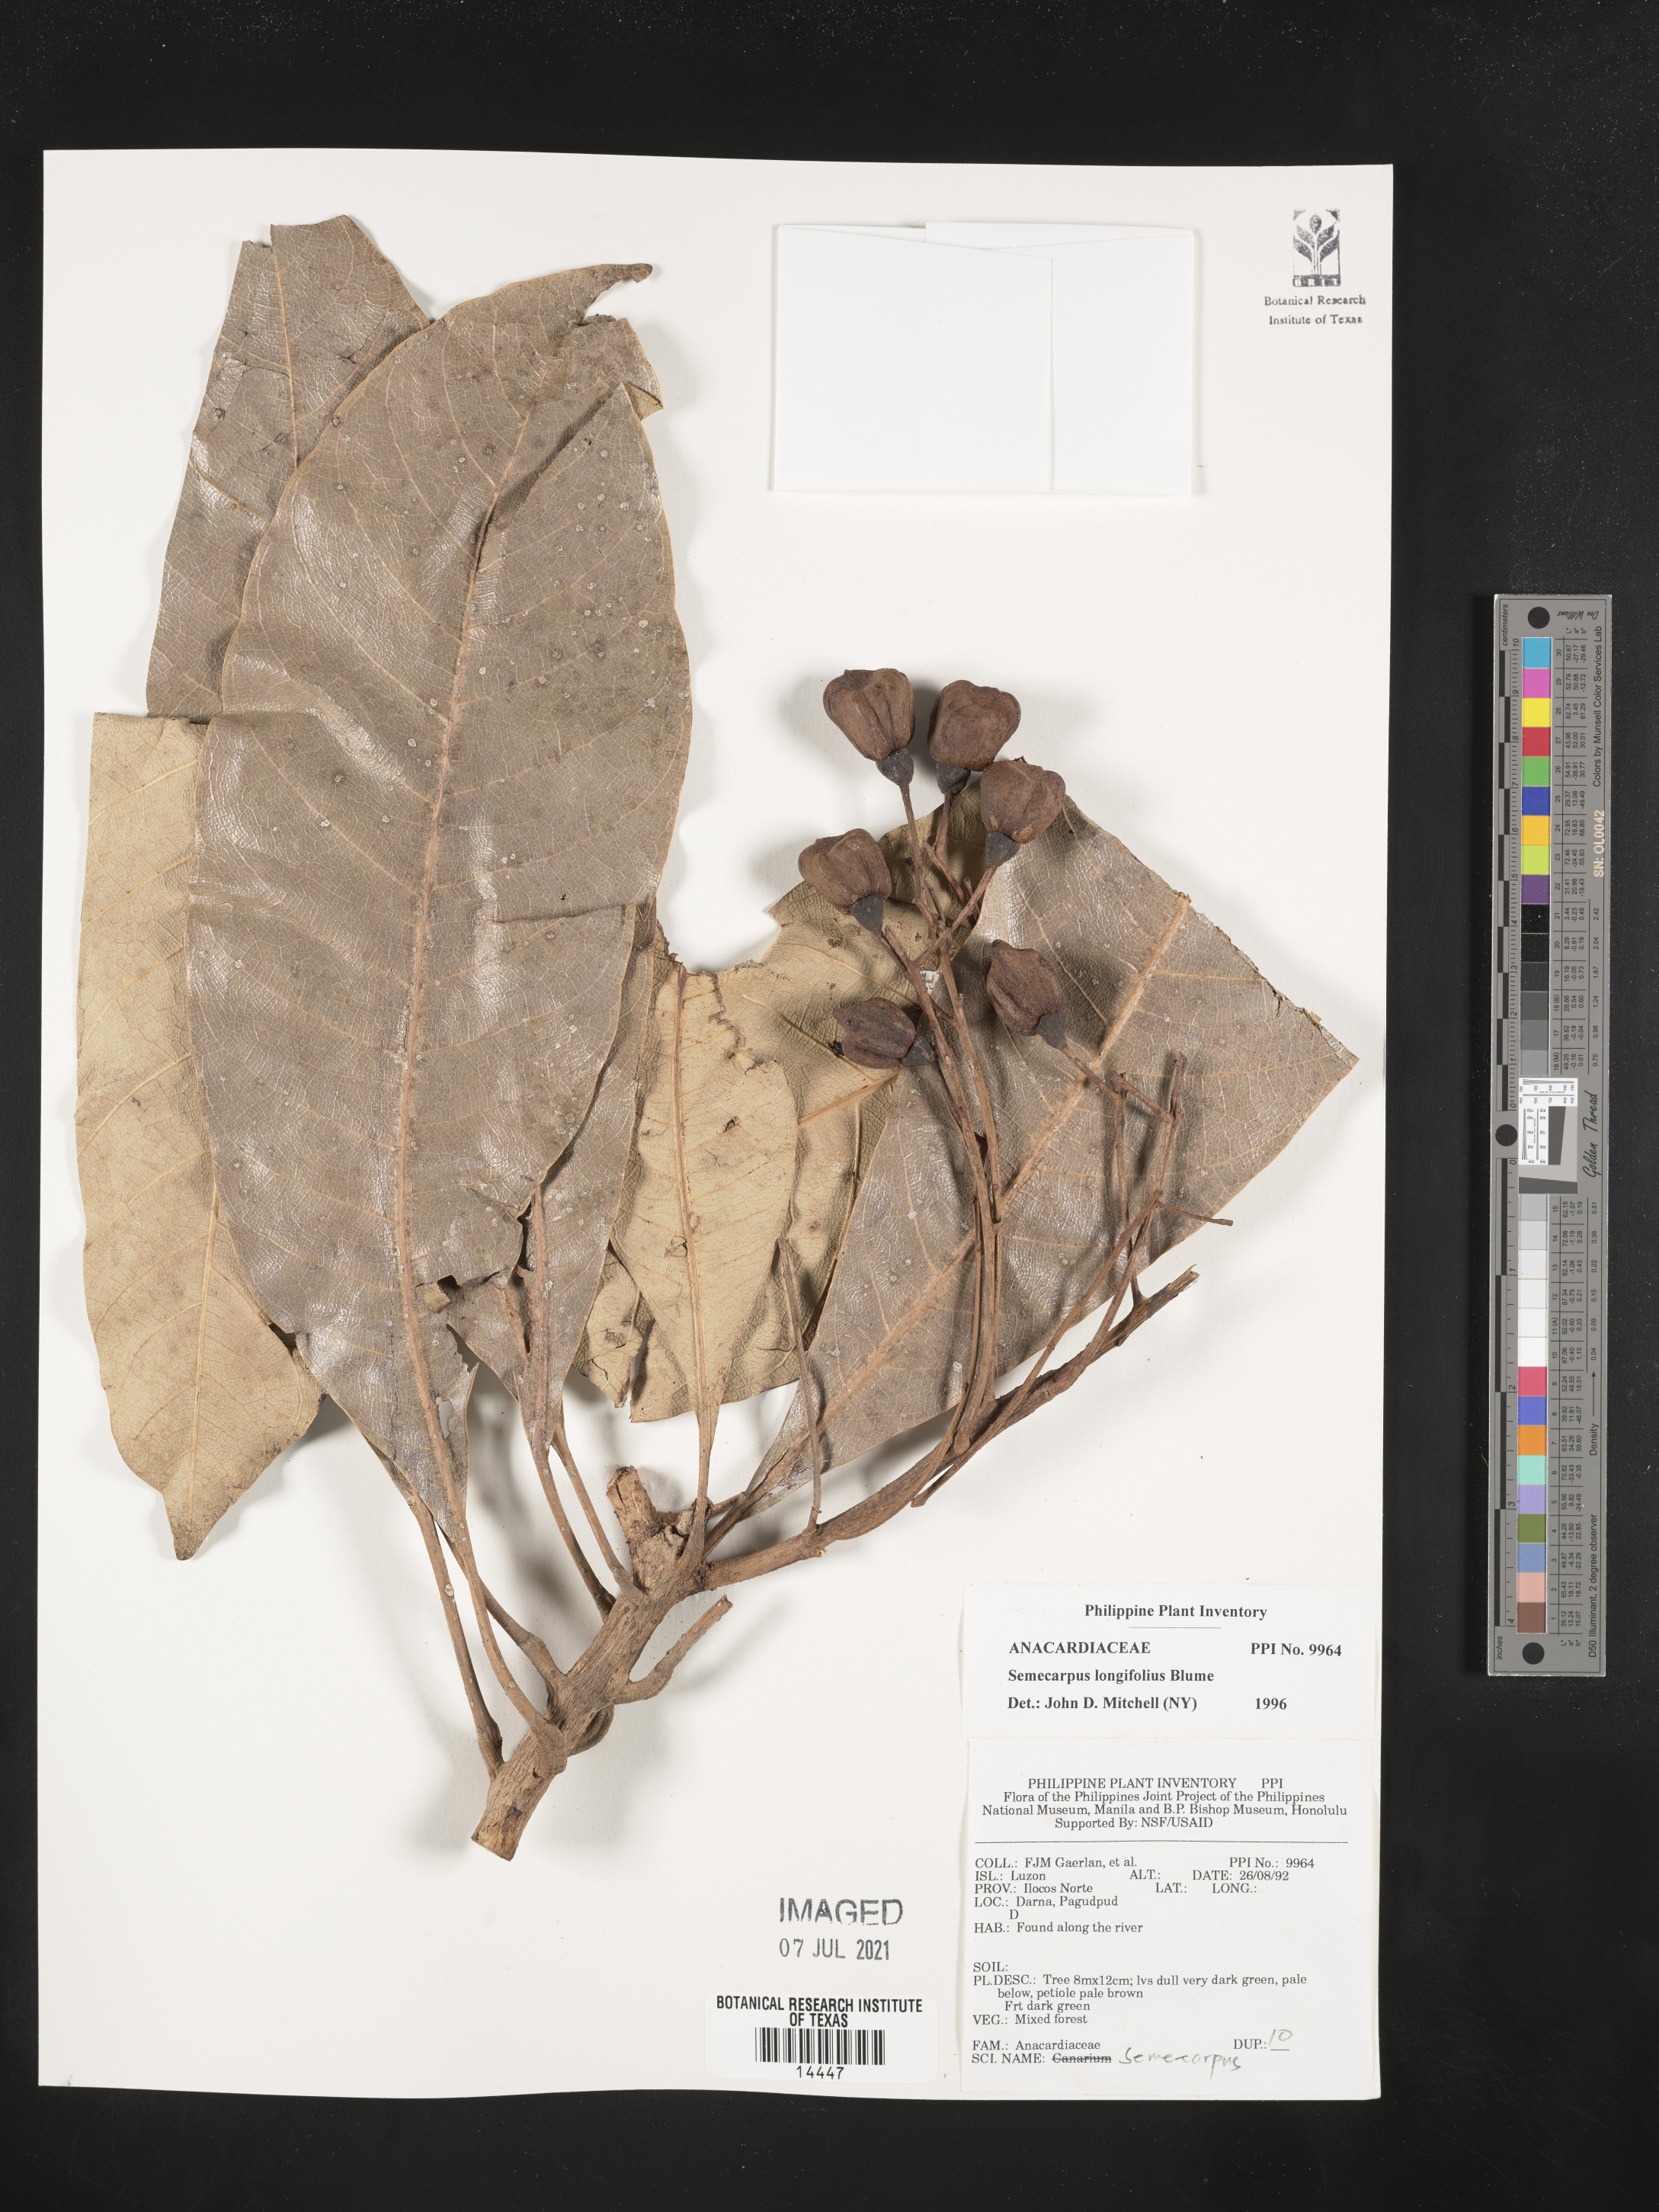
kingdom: Plantae
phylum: Tracheophyta
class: Magnoliopsida
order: Sapindales
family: Anacardiaceae
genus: Semecarpus
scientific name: Semecarpus longifolius
